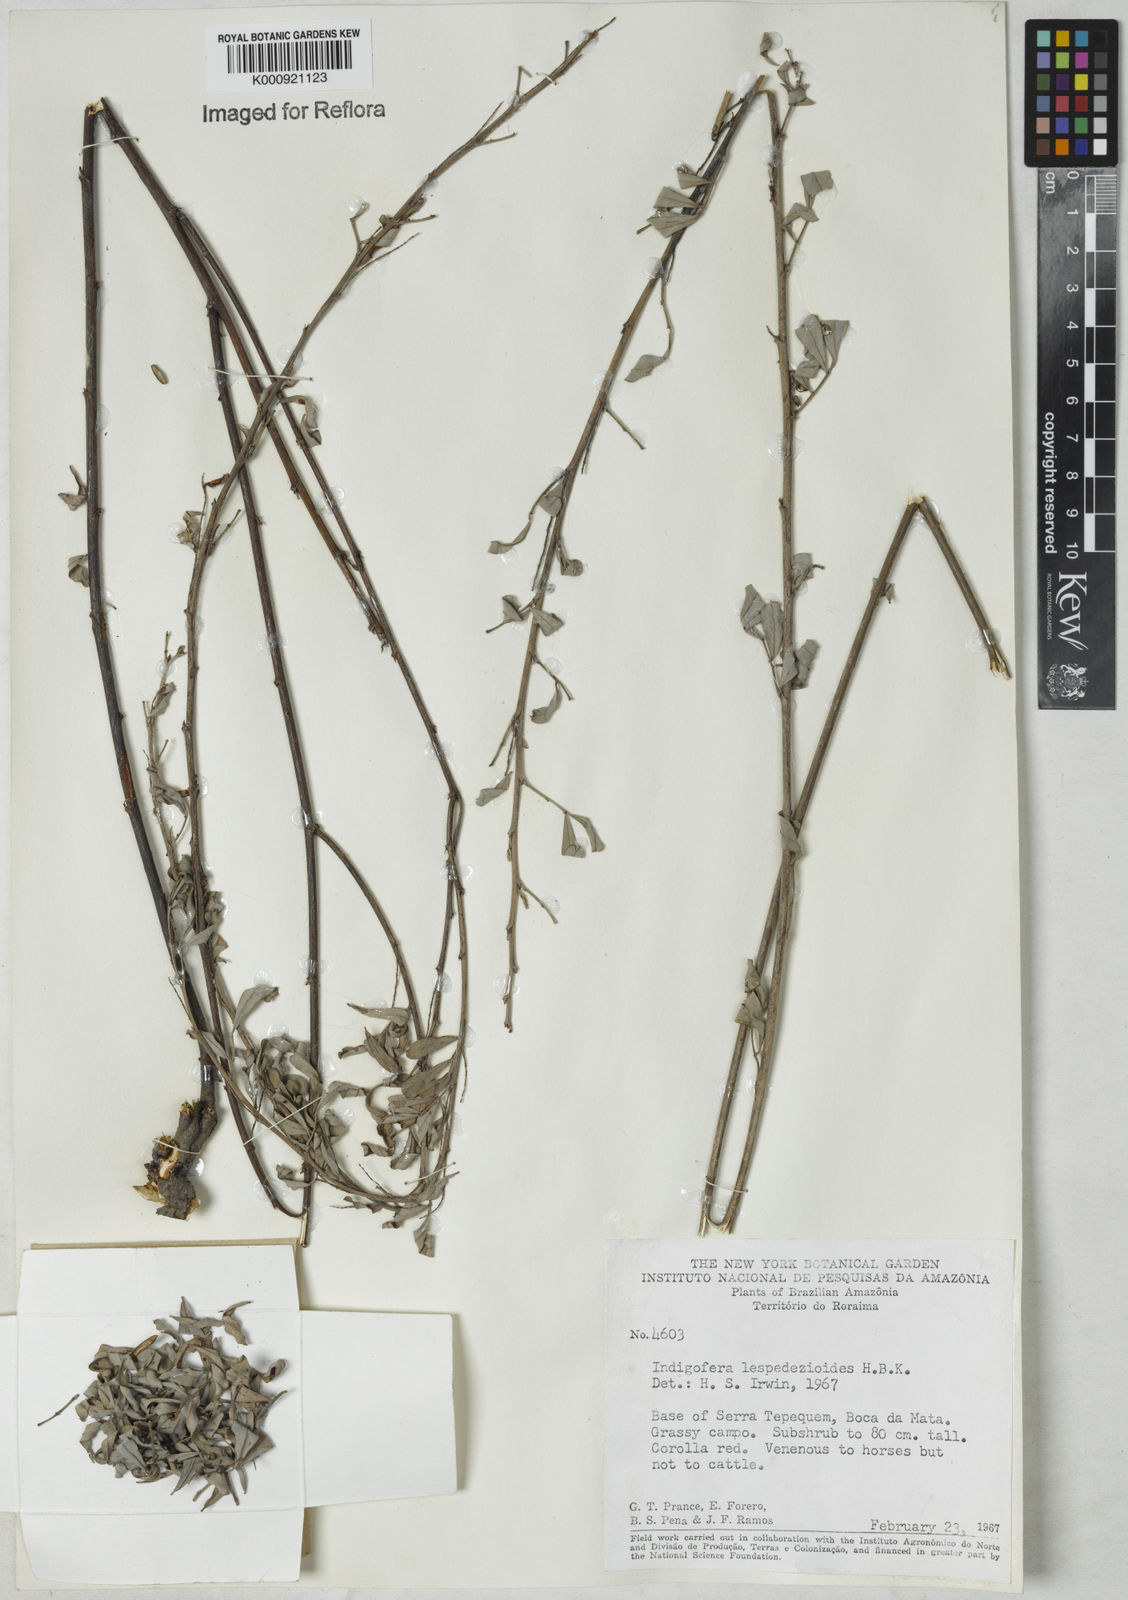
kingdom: Plantae
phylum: Tracheophyta
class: Magnoliopsida
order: Fabales
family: Fabaceae
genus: Indigofera
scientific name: Indigofera lespedezioides
